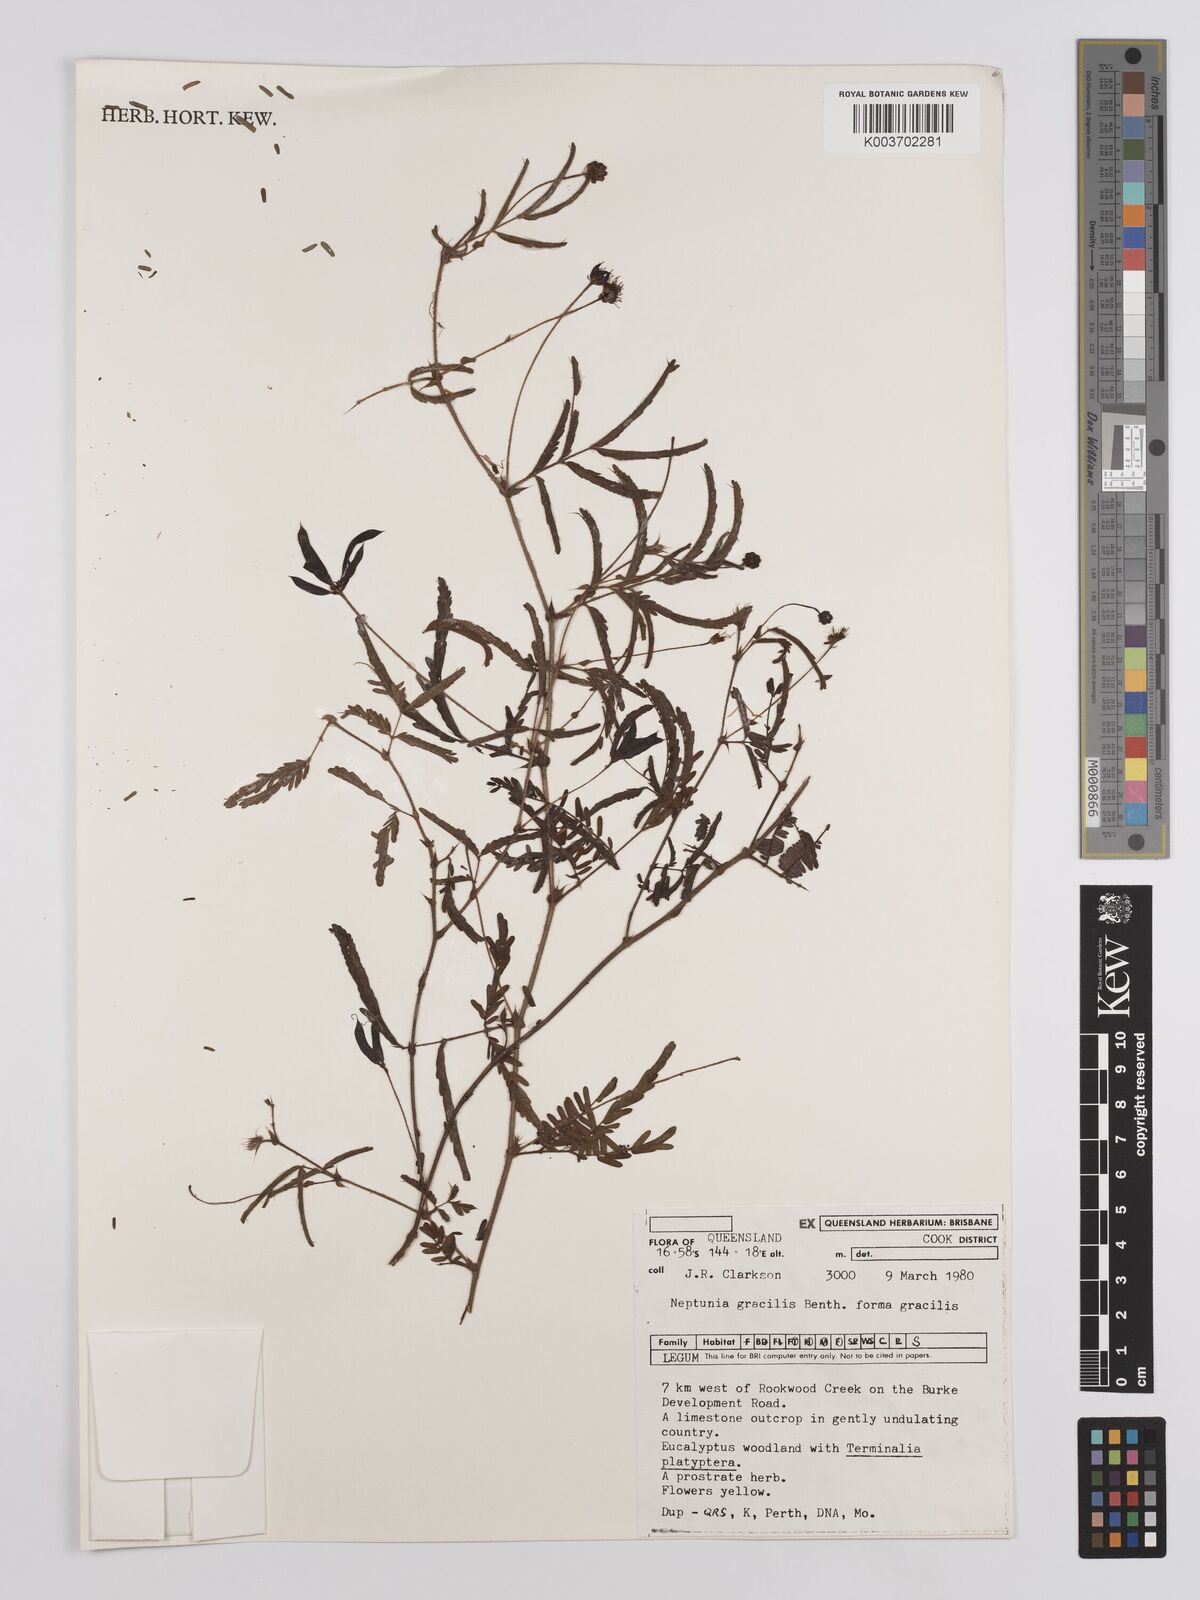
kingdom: Plantae
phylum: Tracheophyta
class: Magnoliopsida
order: Fabales
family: Fabaceae
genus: Neptunia
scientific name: Neptunia gracilis
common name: Sensitive-plant
